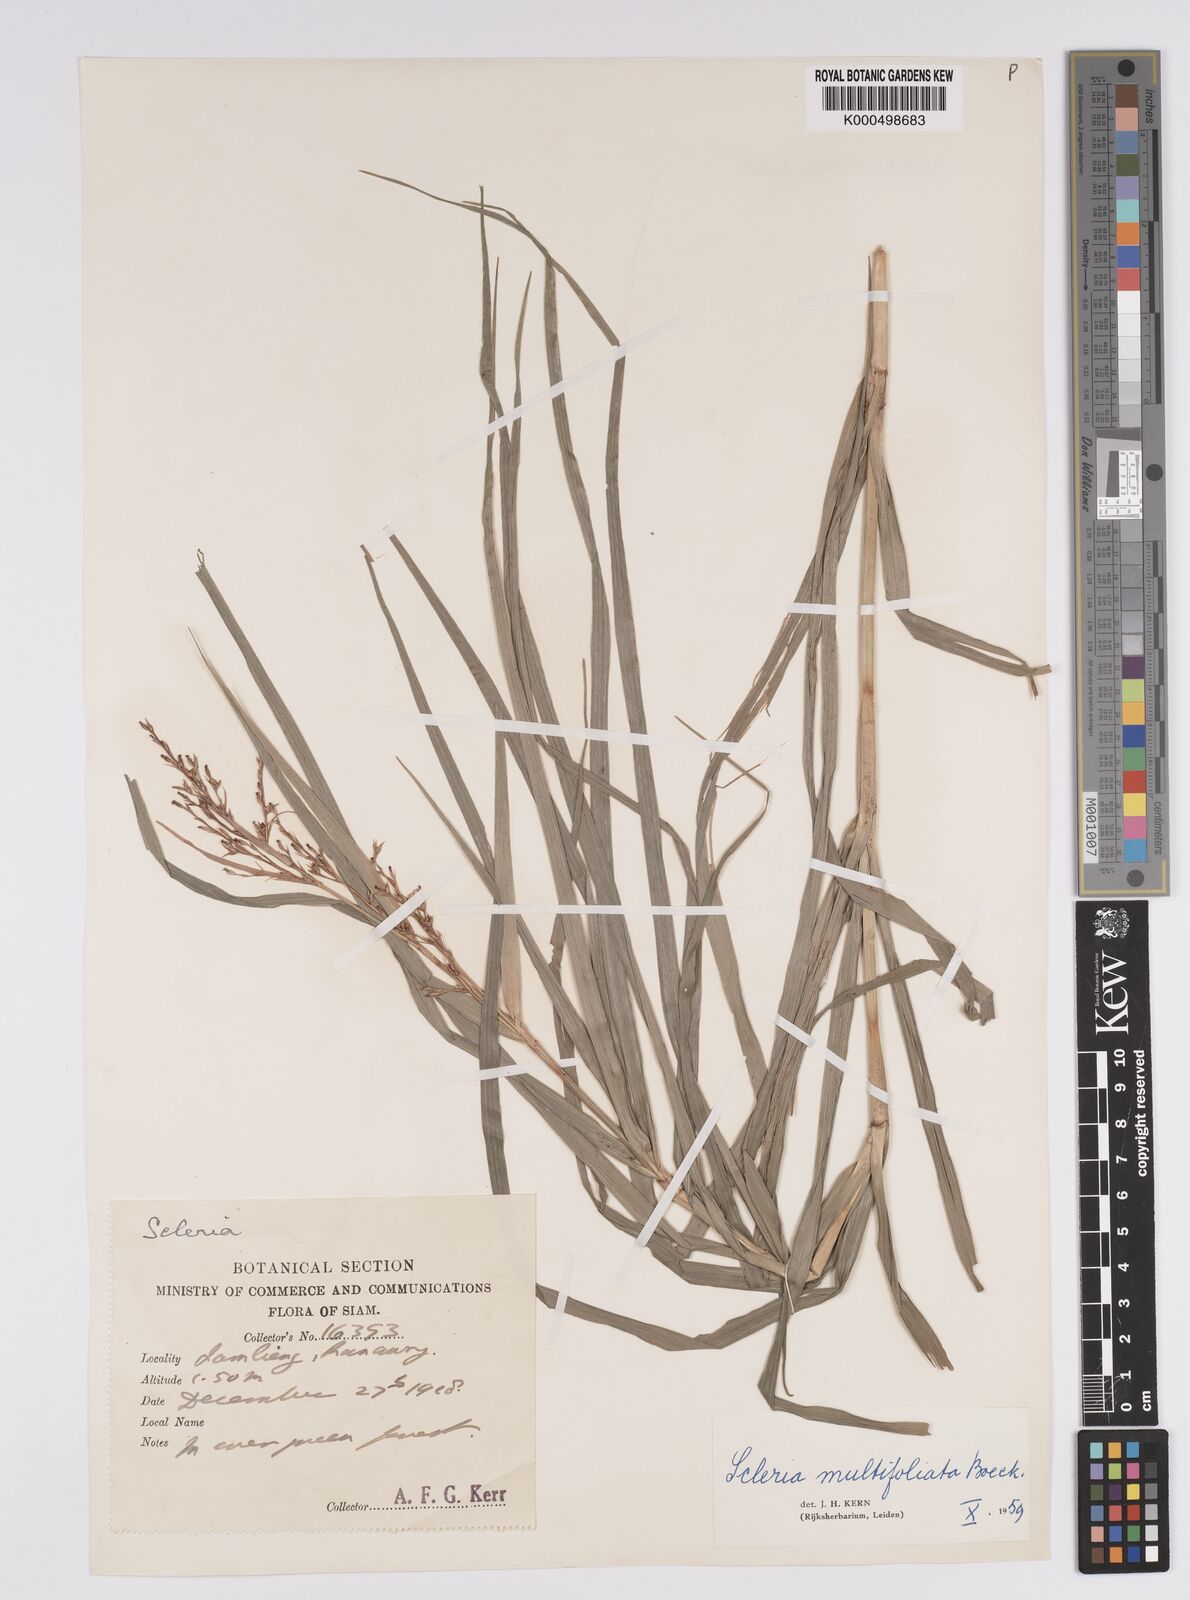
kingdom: Plantae
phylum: Tracheophyta
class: Liliopsida
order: Poales
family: Cyperaceae
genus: Scleria
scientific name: Scleria purpurascens
